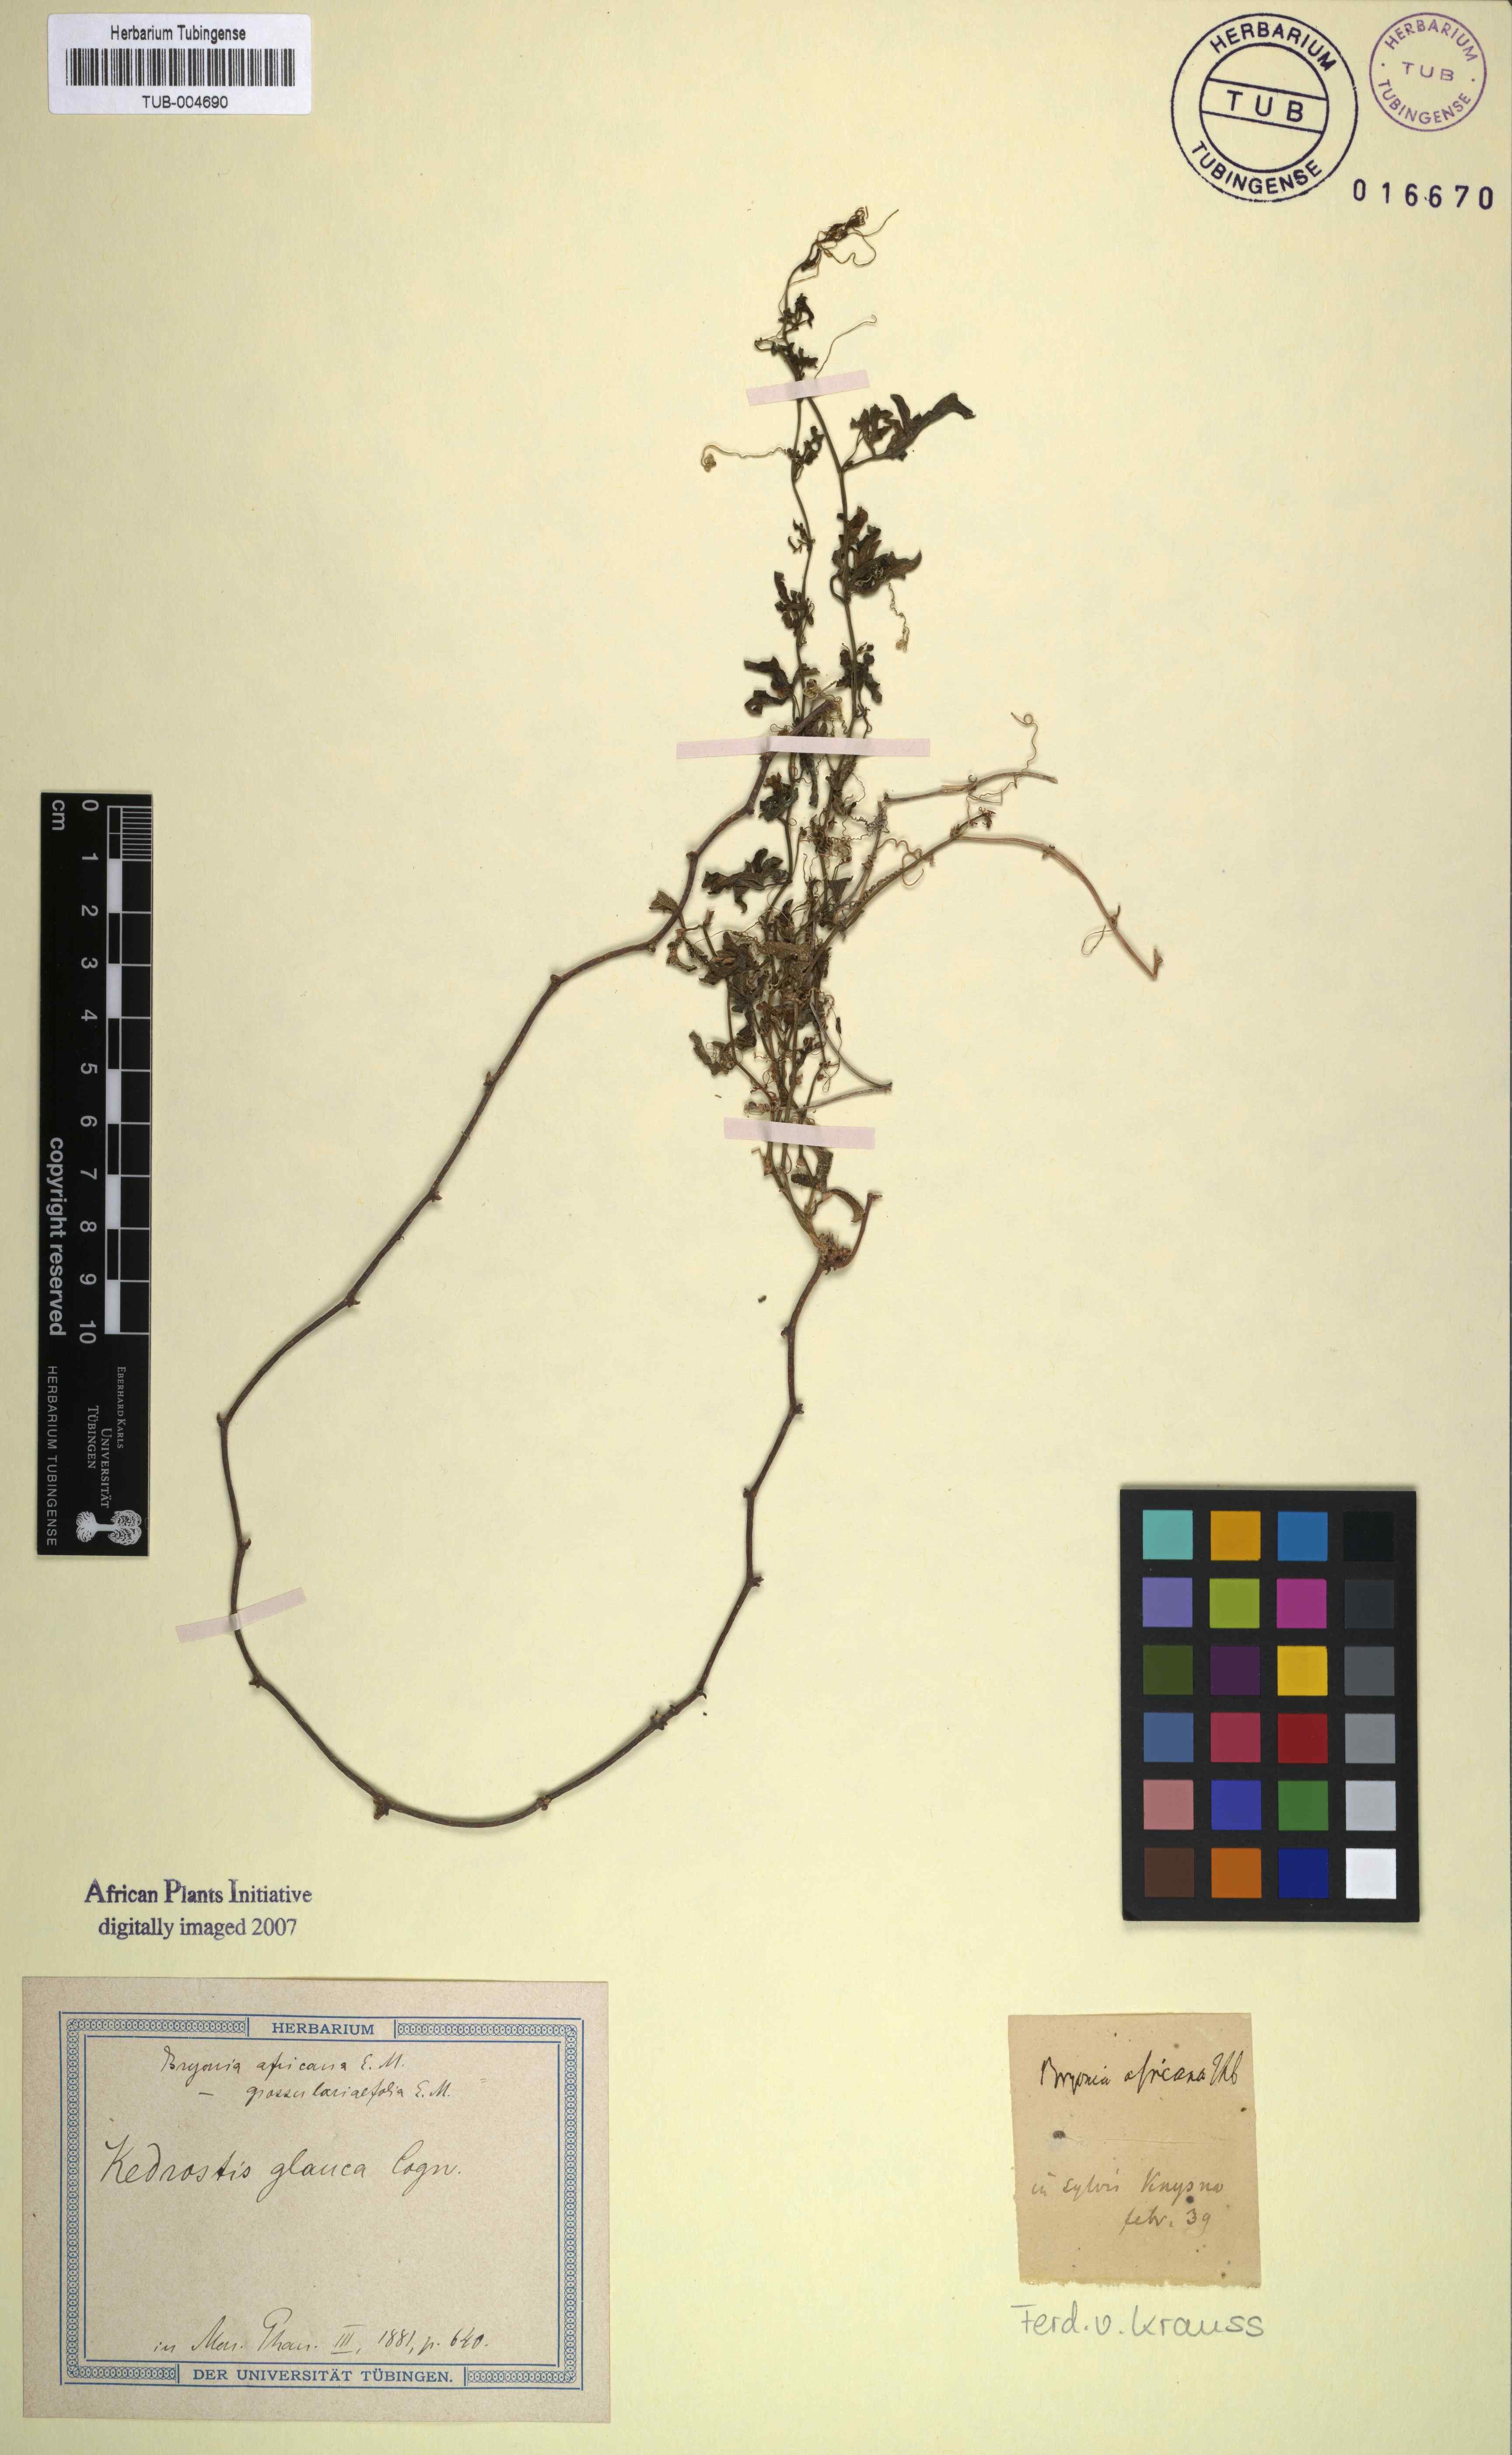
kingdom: Plantae
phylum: Tracheophyta
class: Magnoliopsida
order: Cucurbitales
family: Cucurbitaceae
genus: Kedrostis
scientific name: Kedrostis africana
